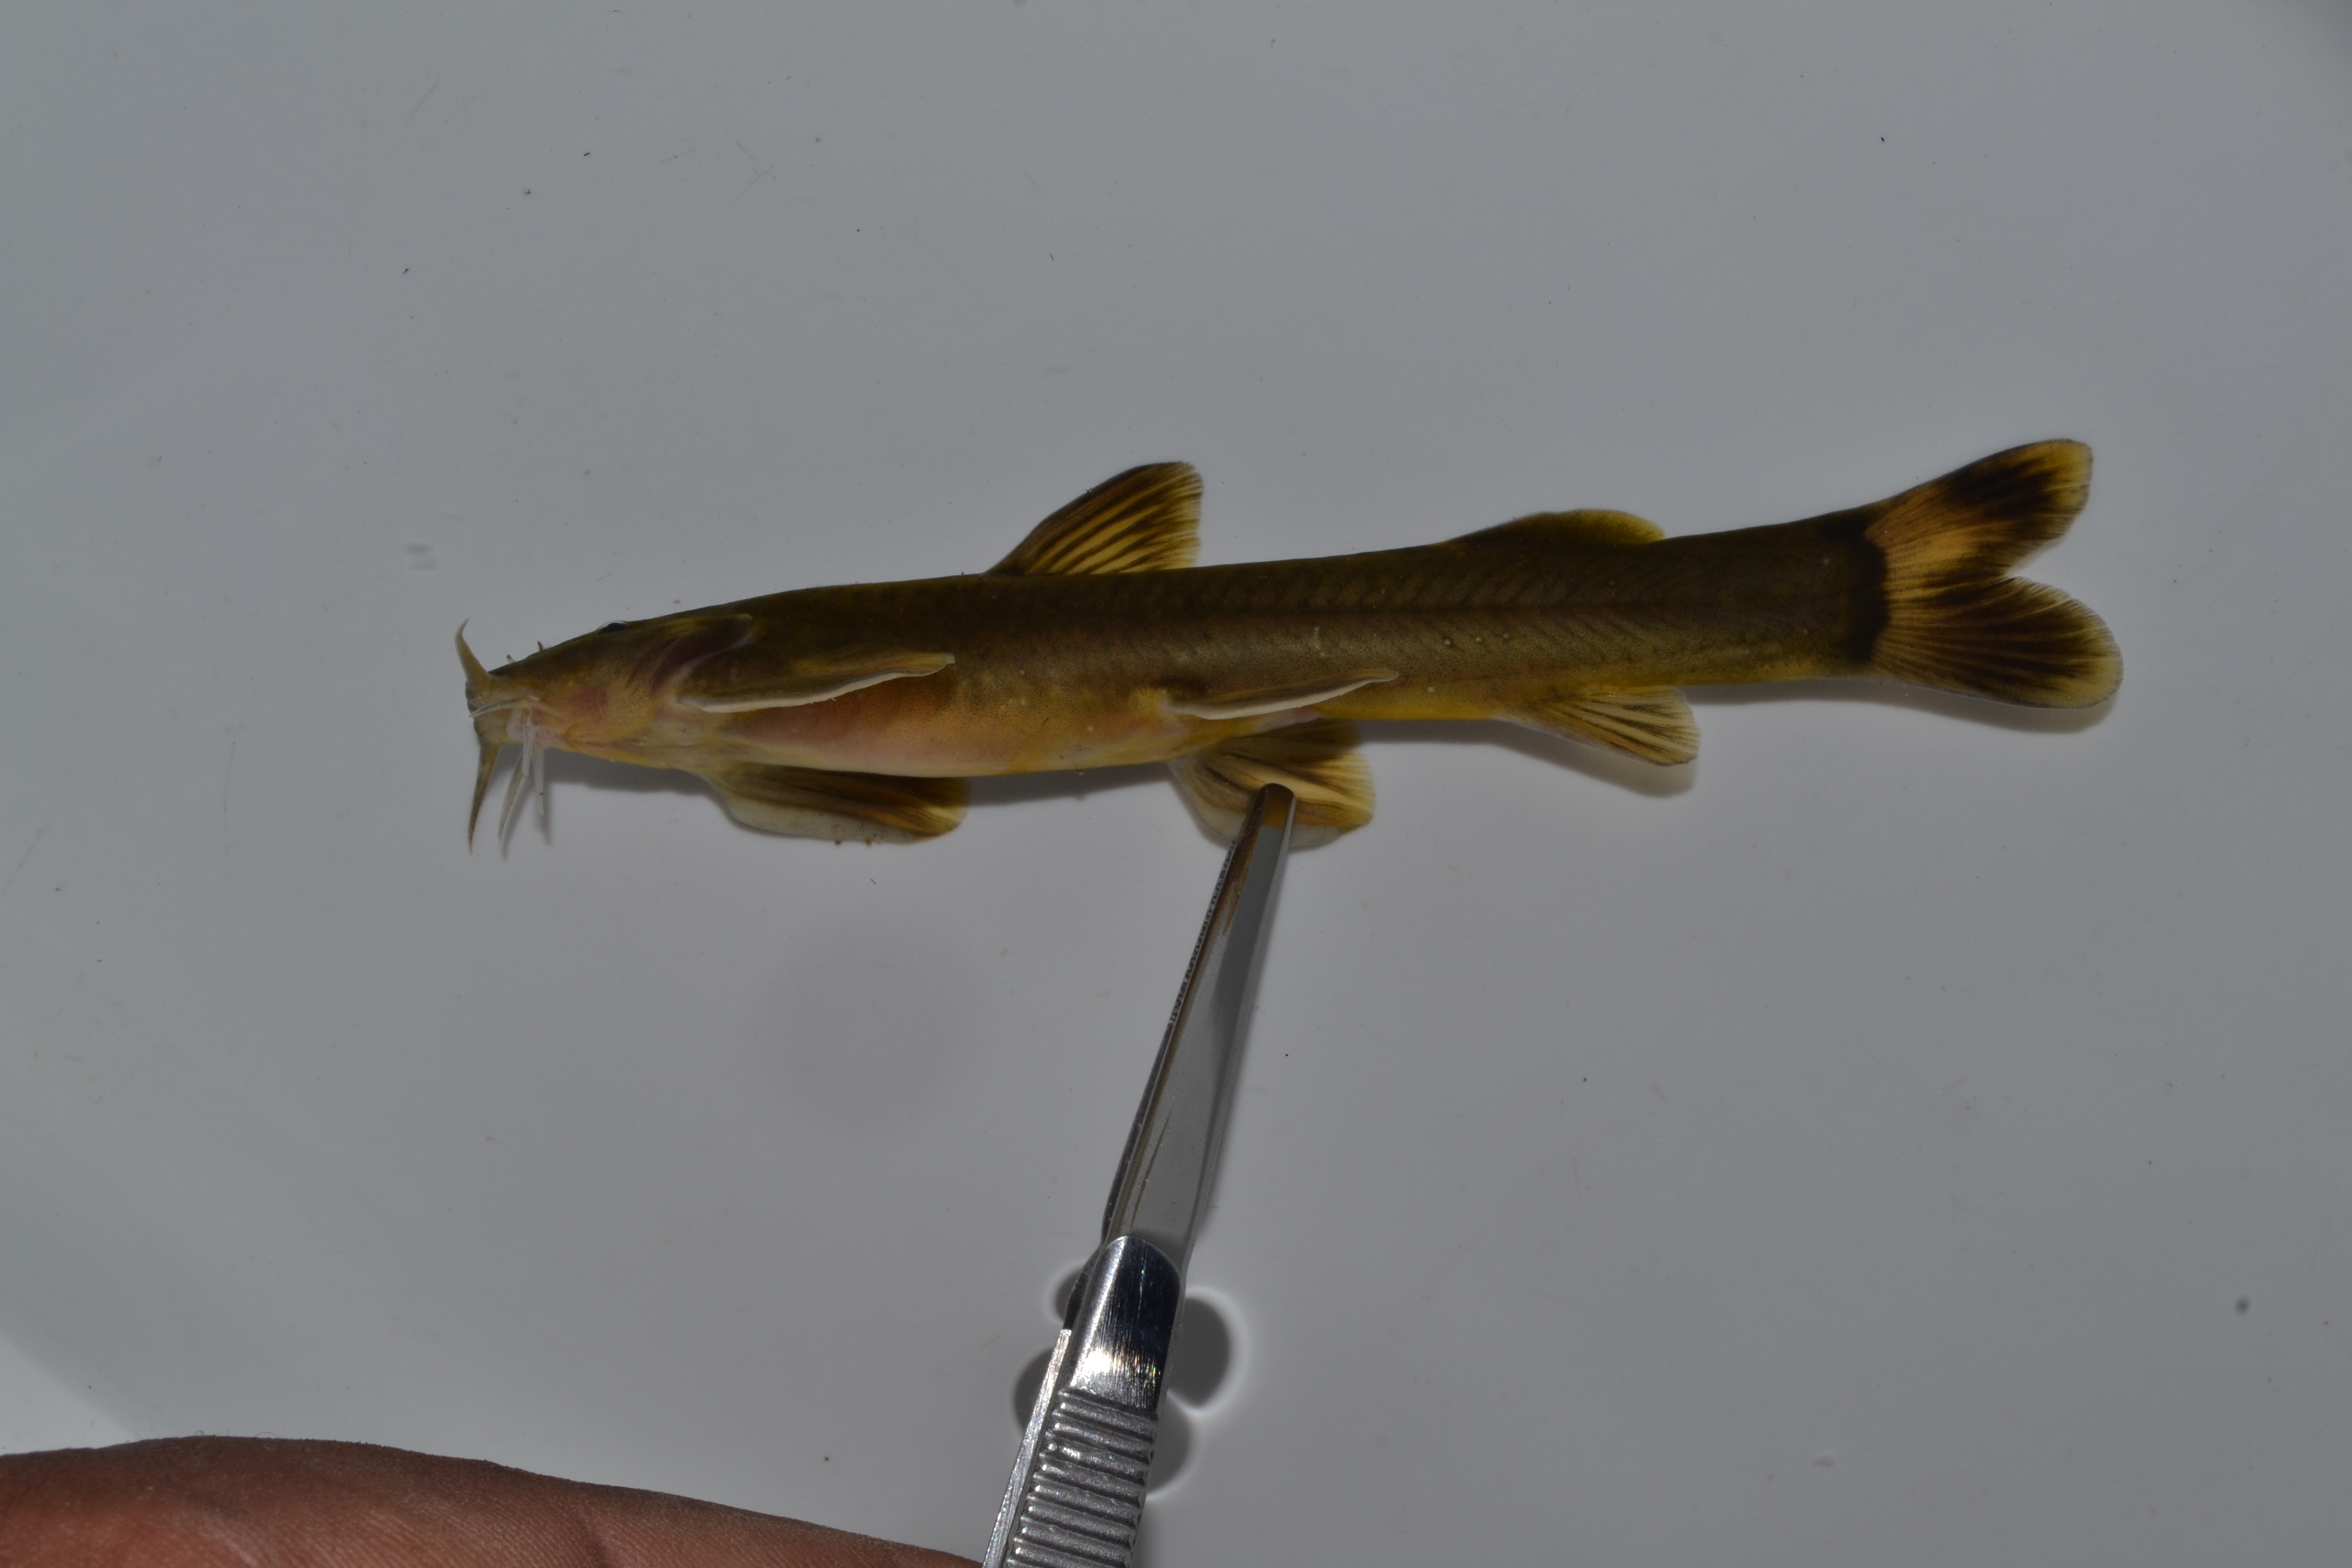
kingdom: Animalia
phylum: Chordata
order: Siluriformes
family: Amphiliidae
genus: Amphilius
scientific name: Amphilius zuluorum
